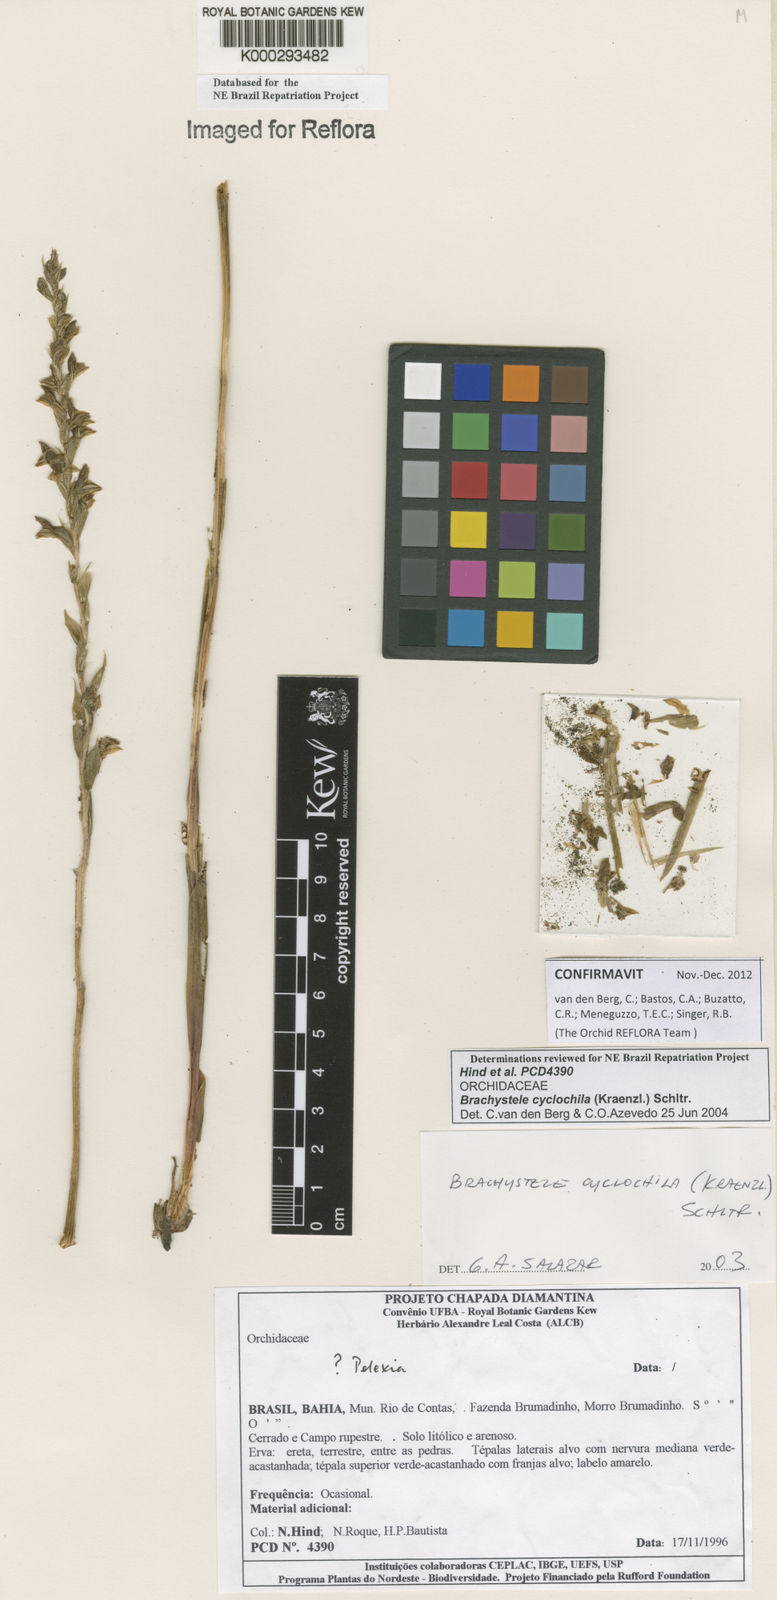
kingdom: Plantae
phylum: Tracheophyta
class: Liliopsida
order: Asparagales
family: Orchidaceae
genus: Brachystele
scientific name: Brachystele cyclochila
